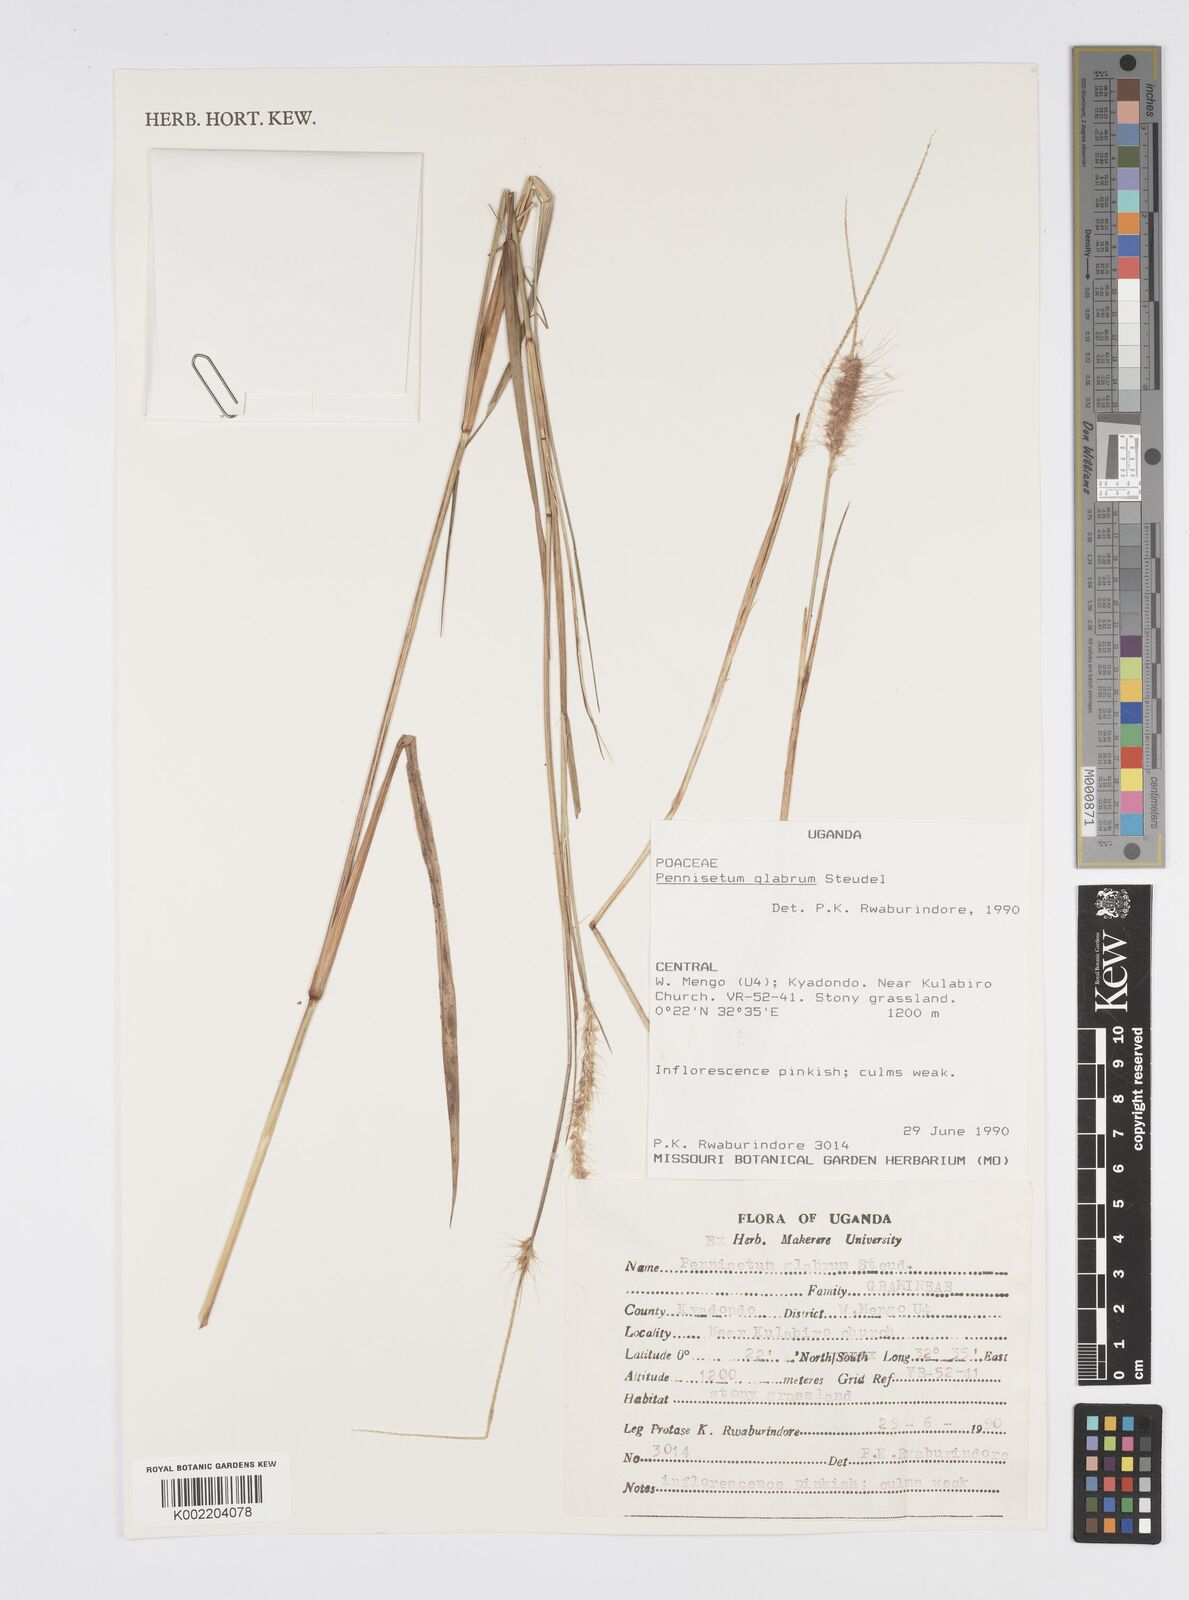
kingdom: Plantae
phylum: Tracheophyta
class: Liliopsida
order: Poales
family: Poaceae
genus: Cenchrus
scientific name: Cenchrus geniculatus
